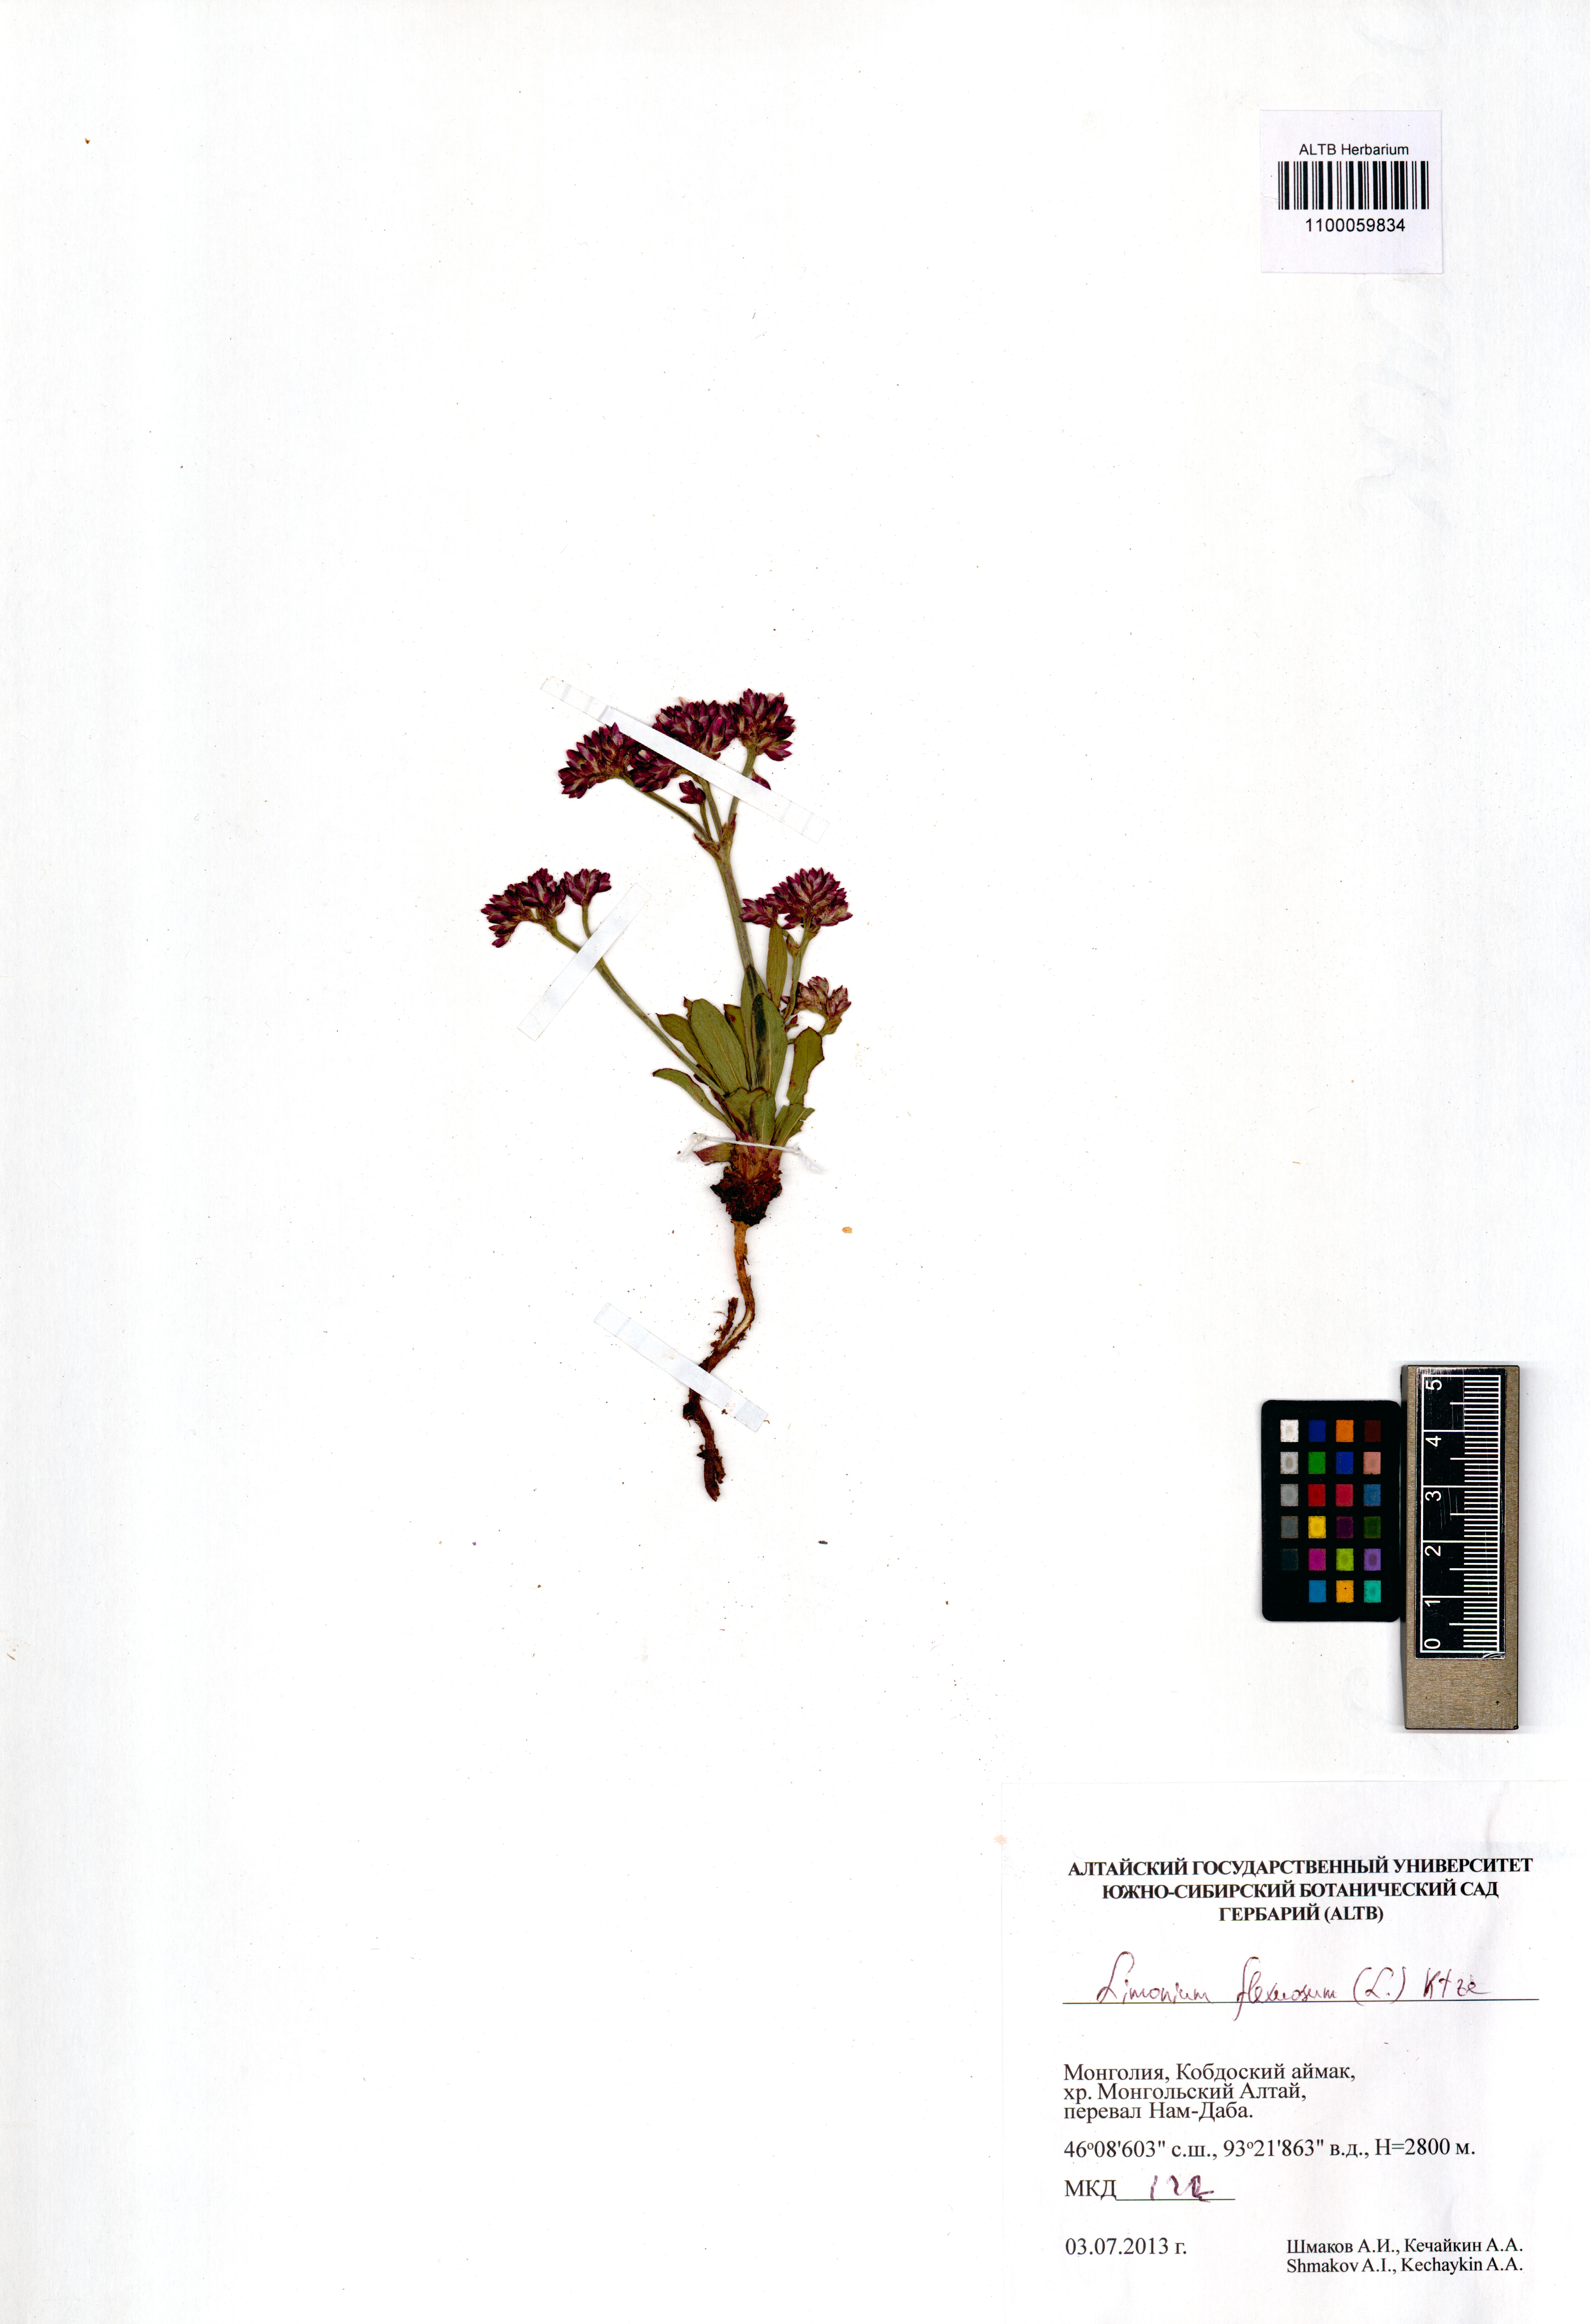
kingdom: Plantae
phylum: Tracheophyta
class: Magnoliopsida
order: Caryophyllales
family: Plumbaginaceae
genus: Limonium
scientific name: Limonium flexuosum
